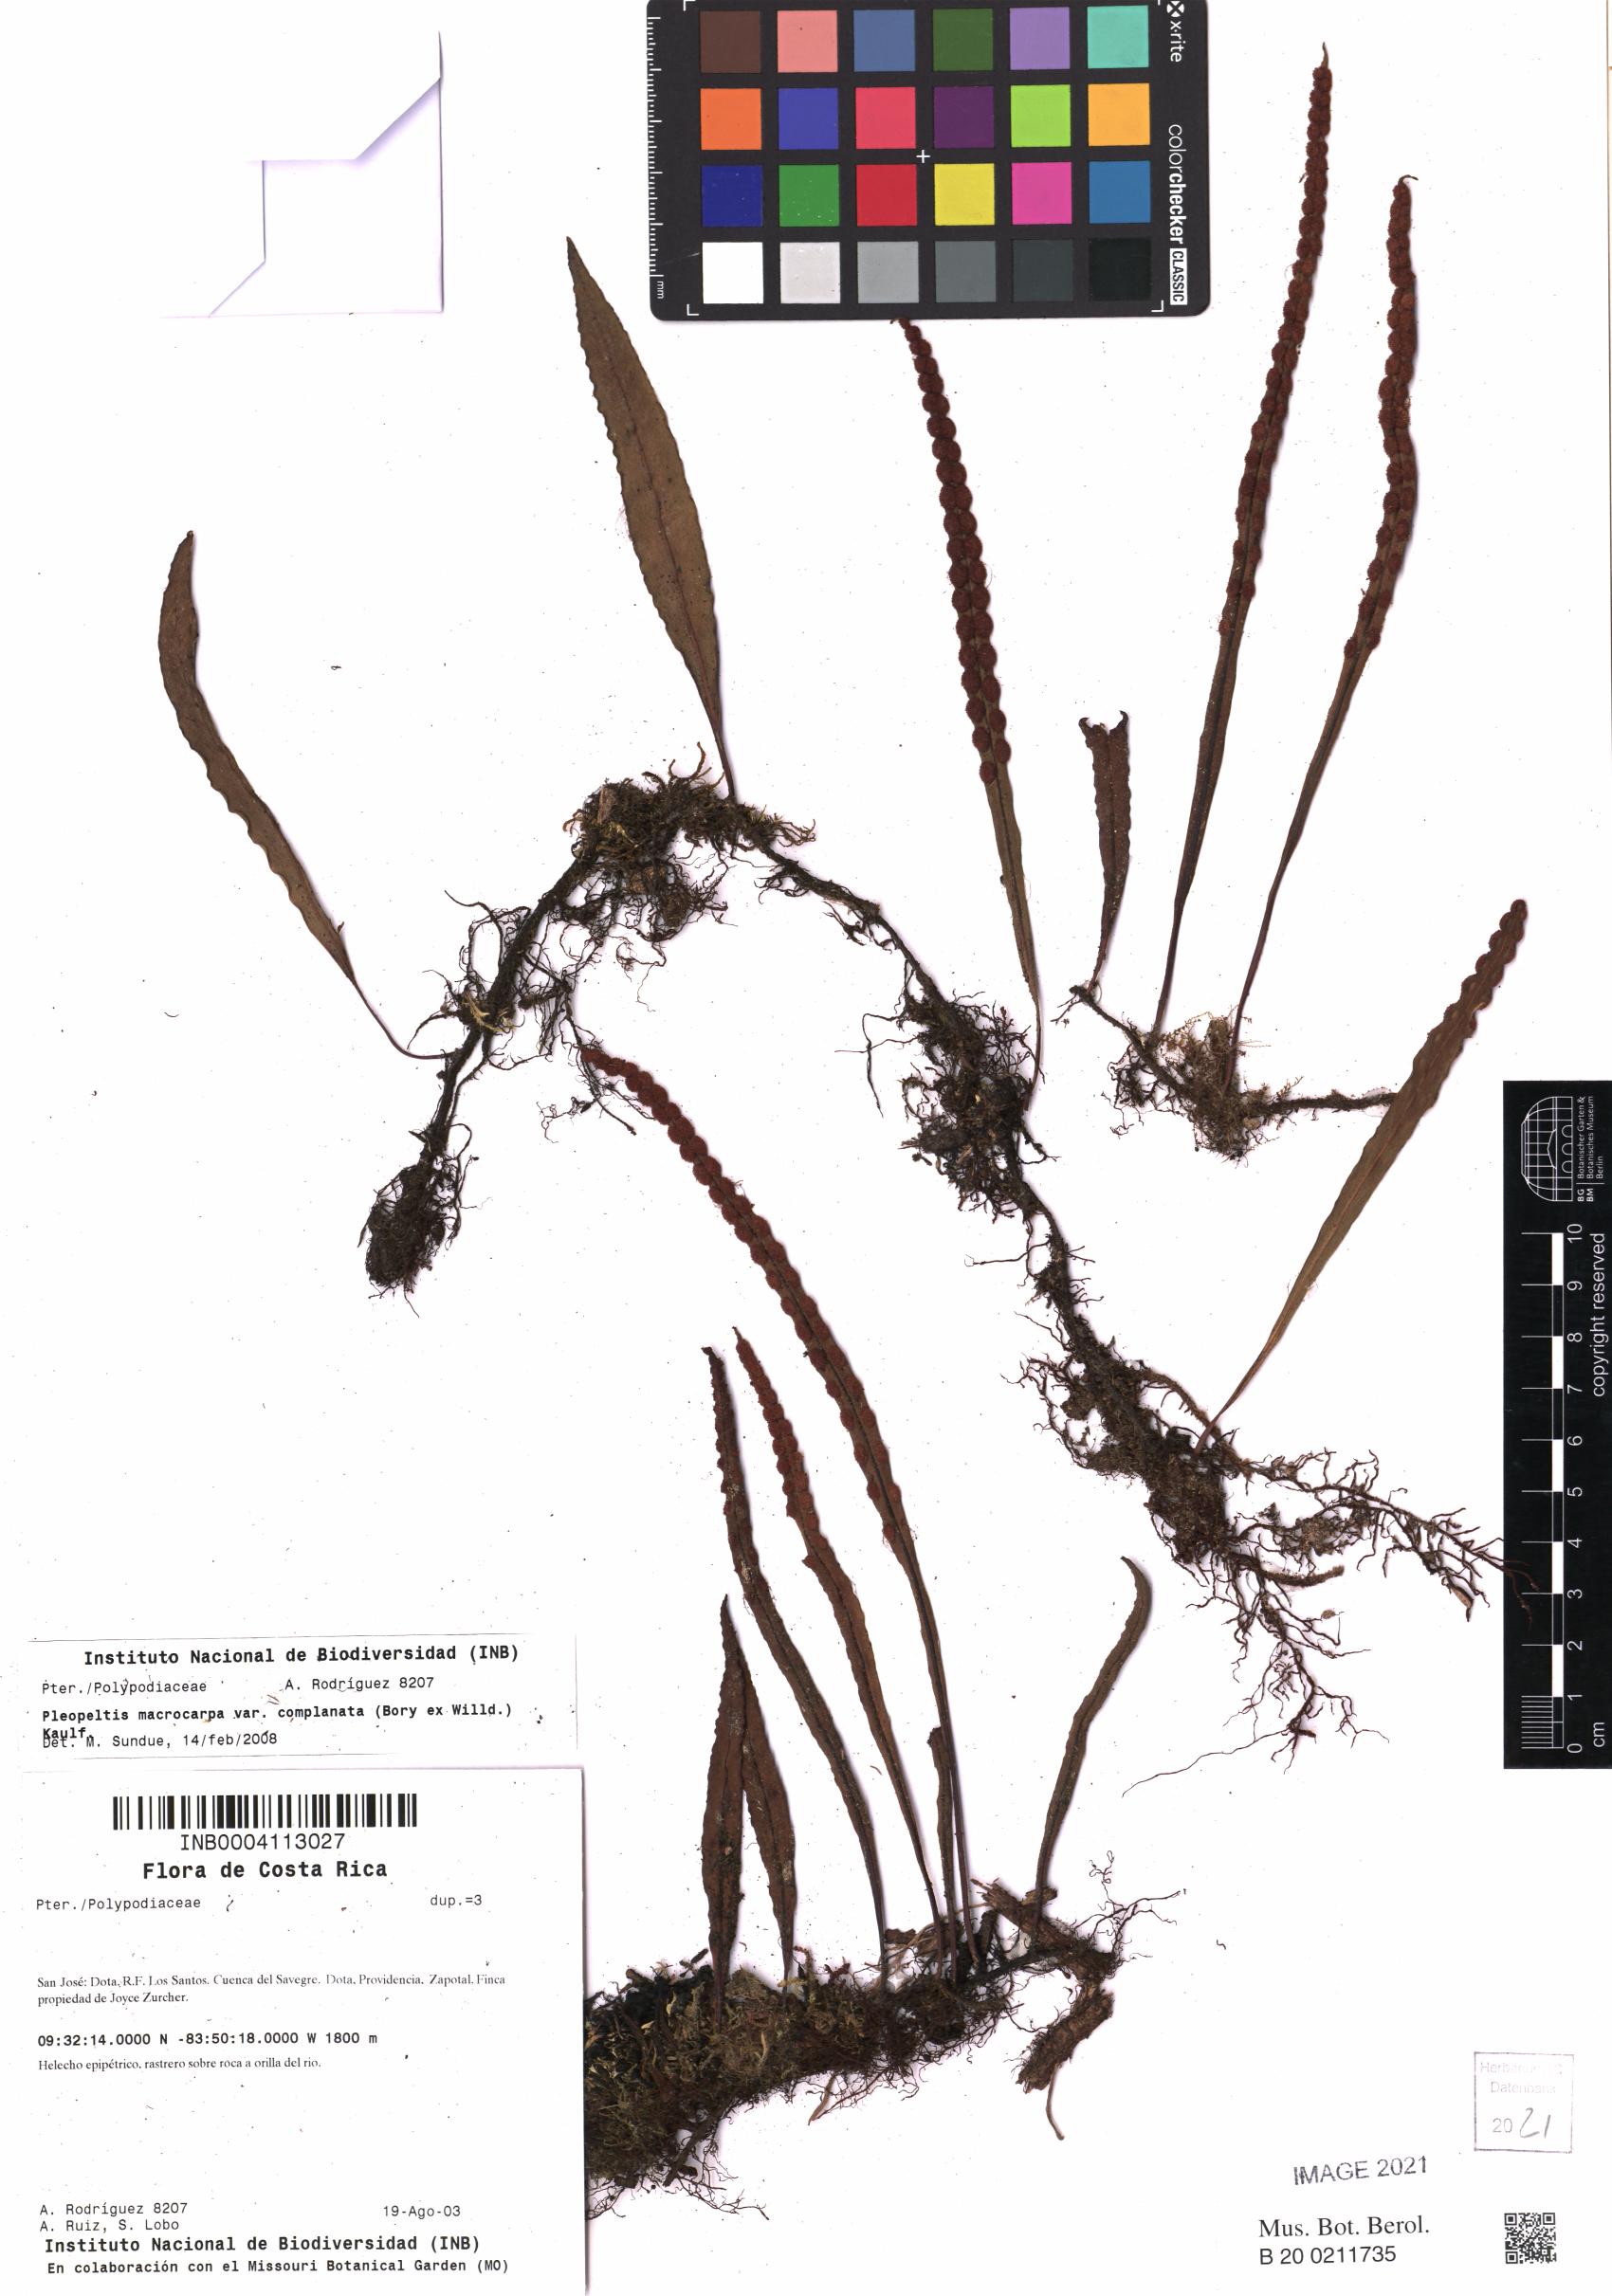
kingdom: Plantae
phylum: Tracheophyta
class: Polypodiopsida
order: Polypodiales
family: Polypodiaceae
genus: Pleopeltis
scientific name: Pleopeltis macrocarpa
